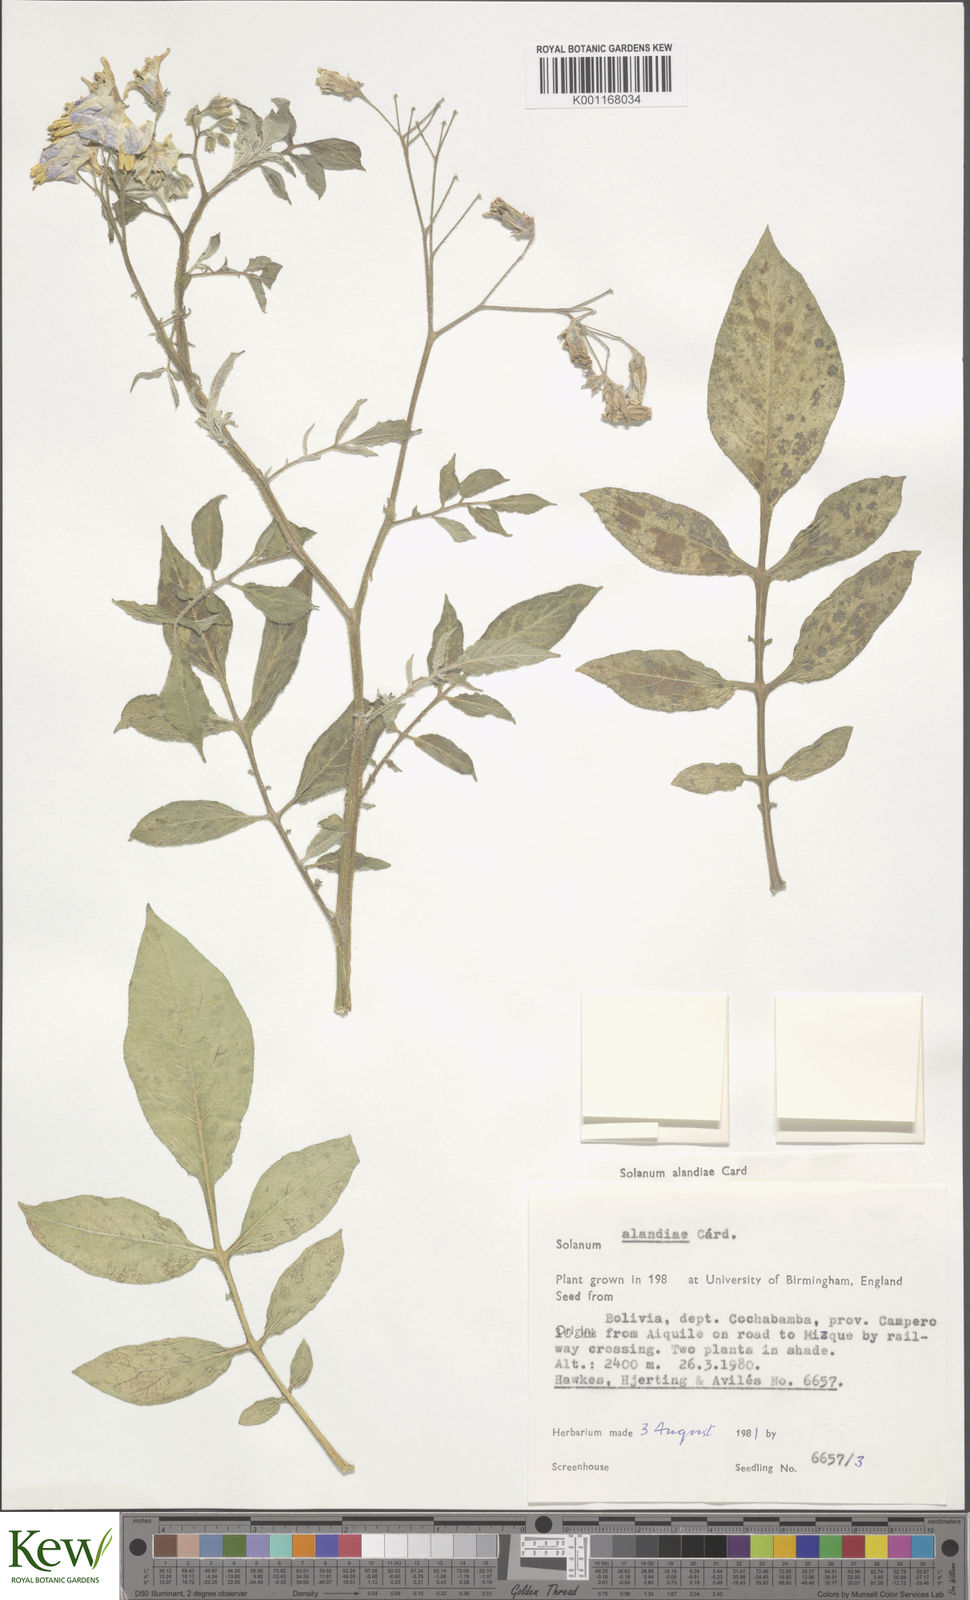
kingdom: Plantae
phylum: Tracheophyta
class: Magnoliopsida
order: Solanales
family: Solanaceae
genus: Solanum
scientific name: Solanum
